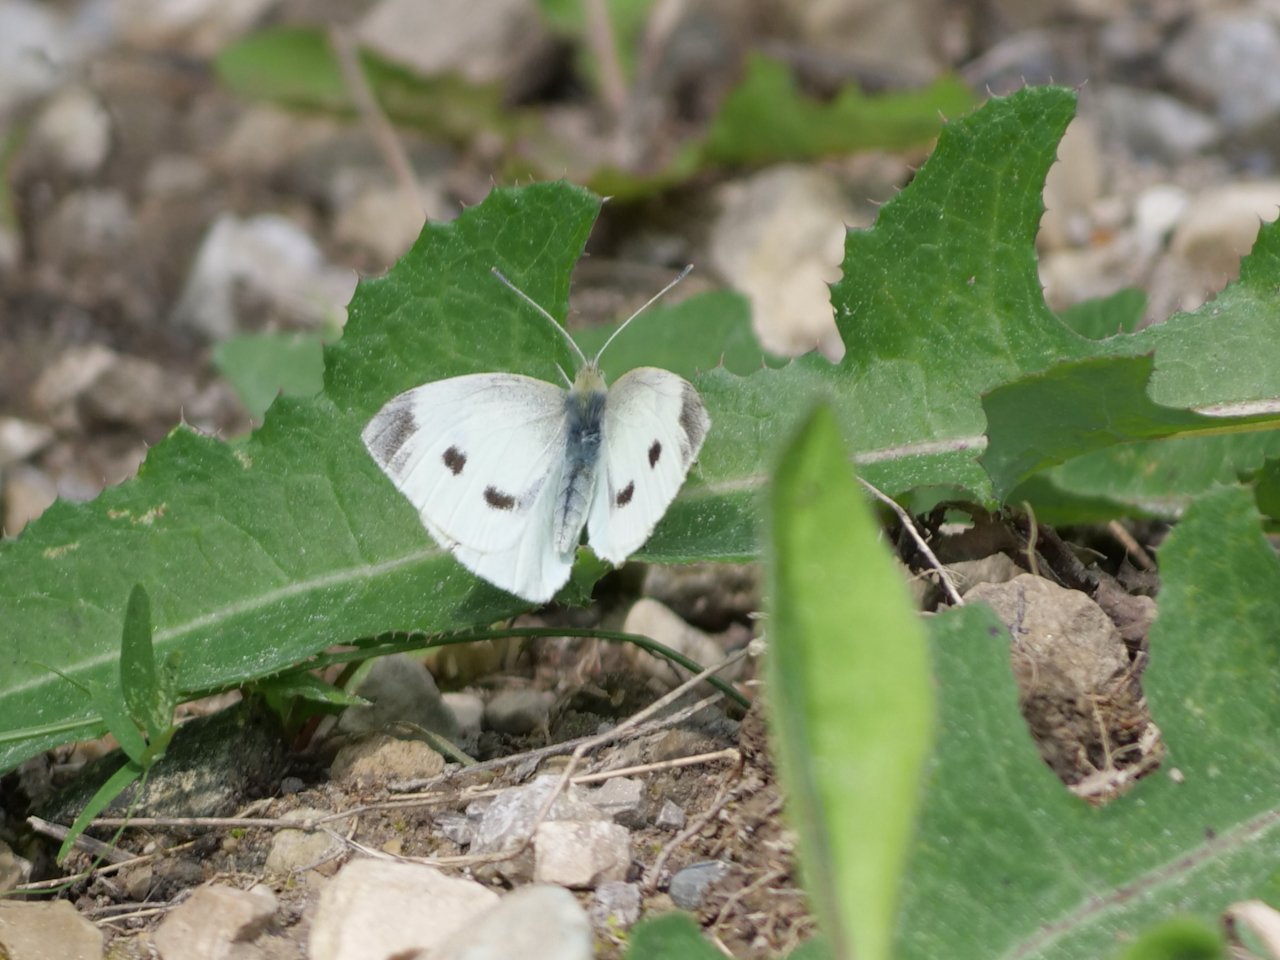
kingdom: Animalia
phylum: Arthropoda
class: Insecta
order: Lepidoptera
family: Pieridae
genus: Pieris
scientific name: Pieris rapae
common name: Cabbage White
